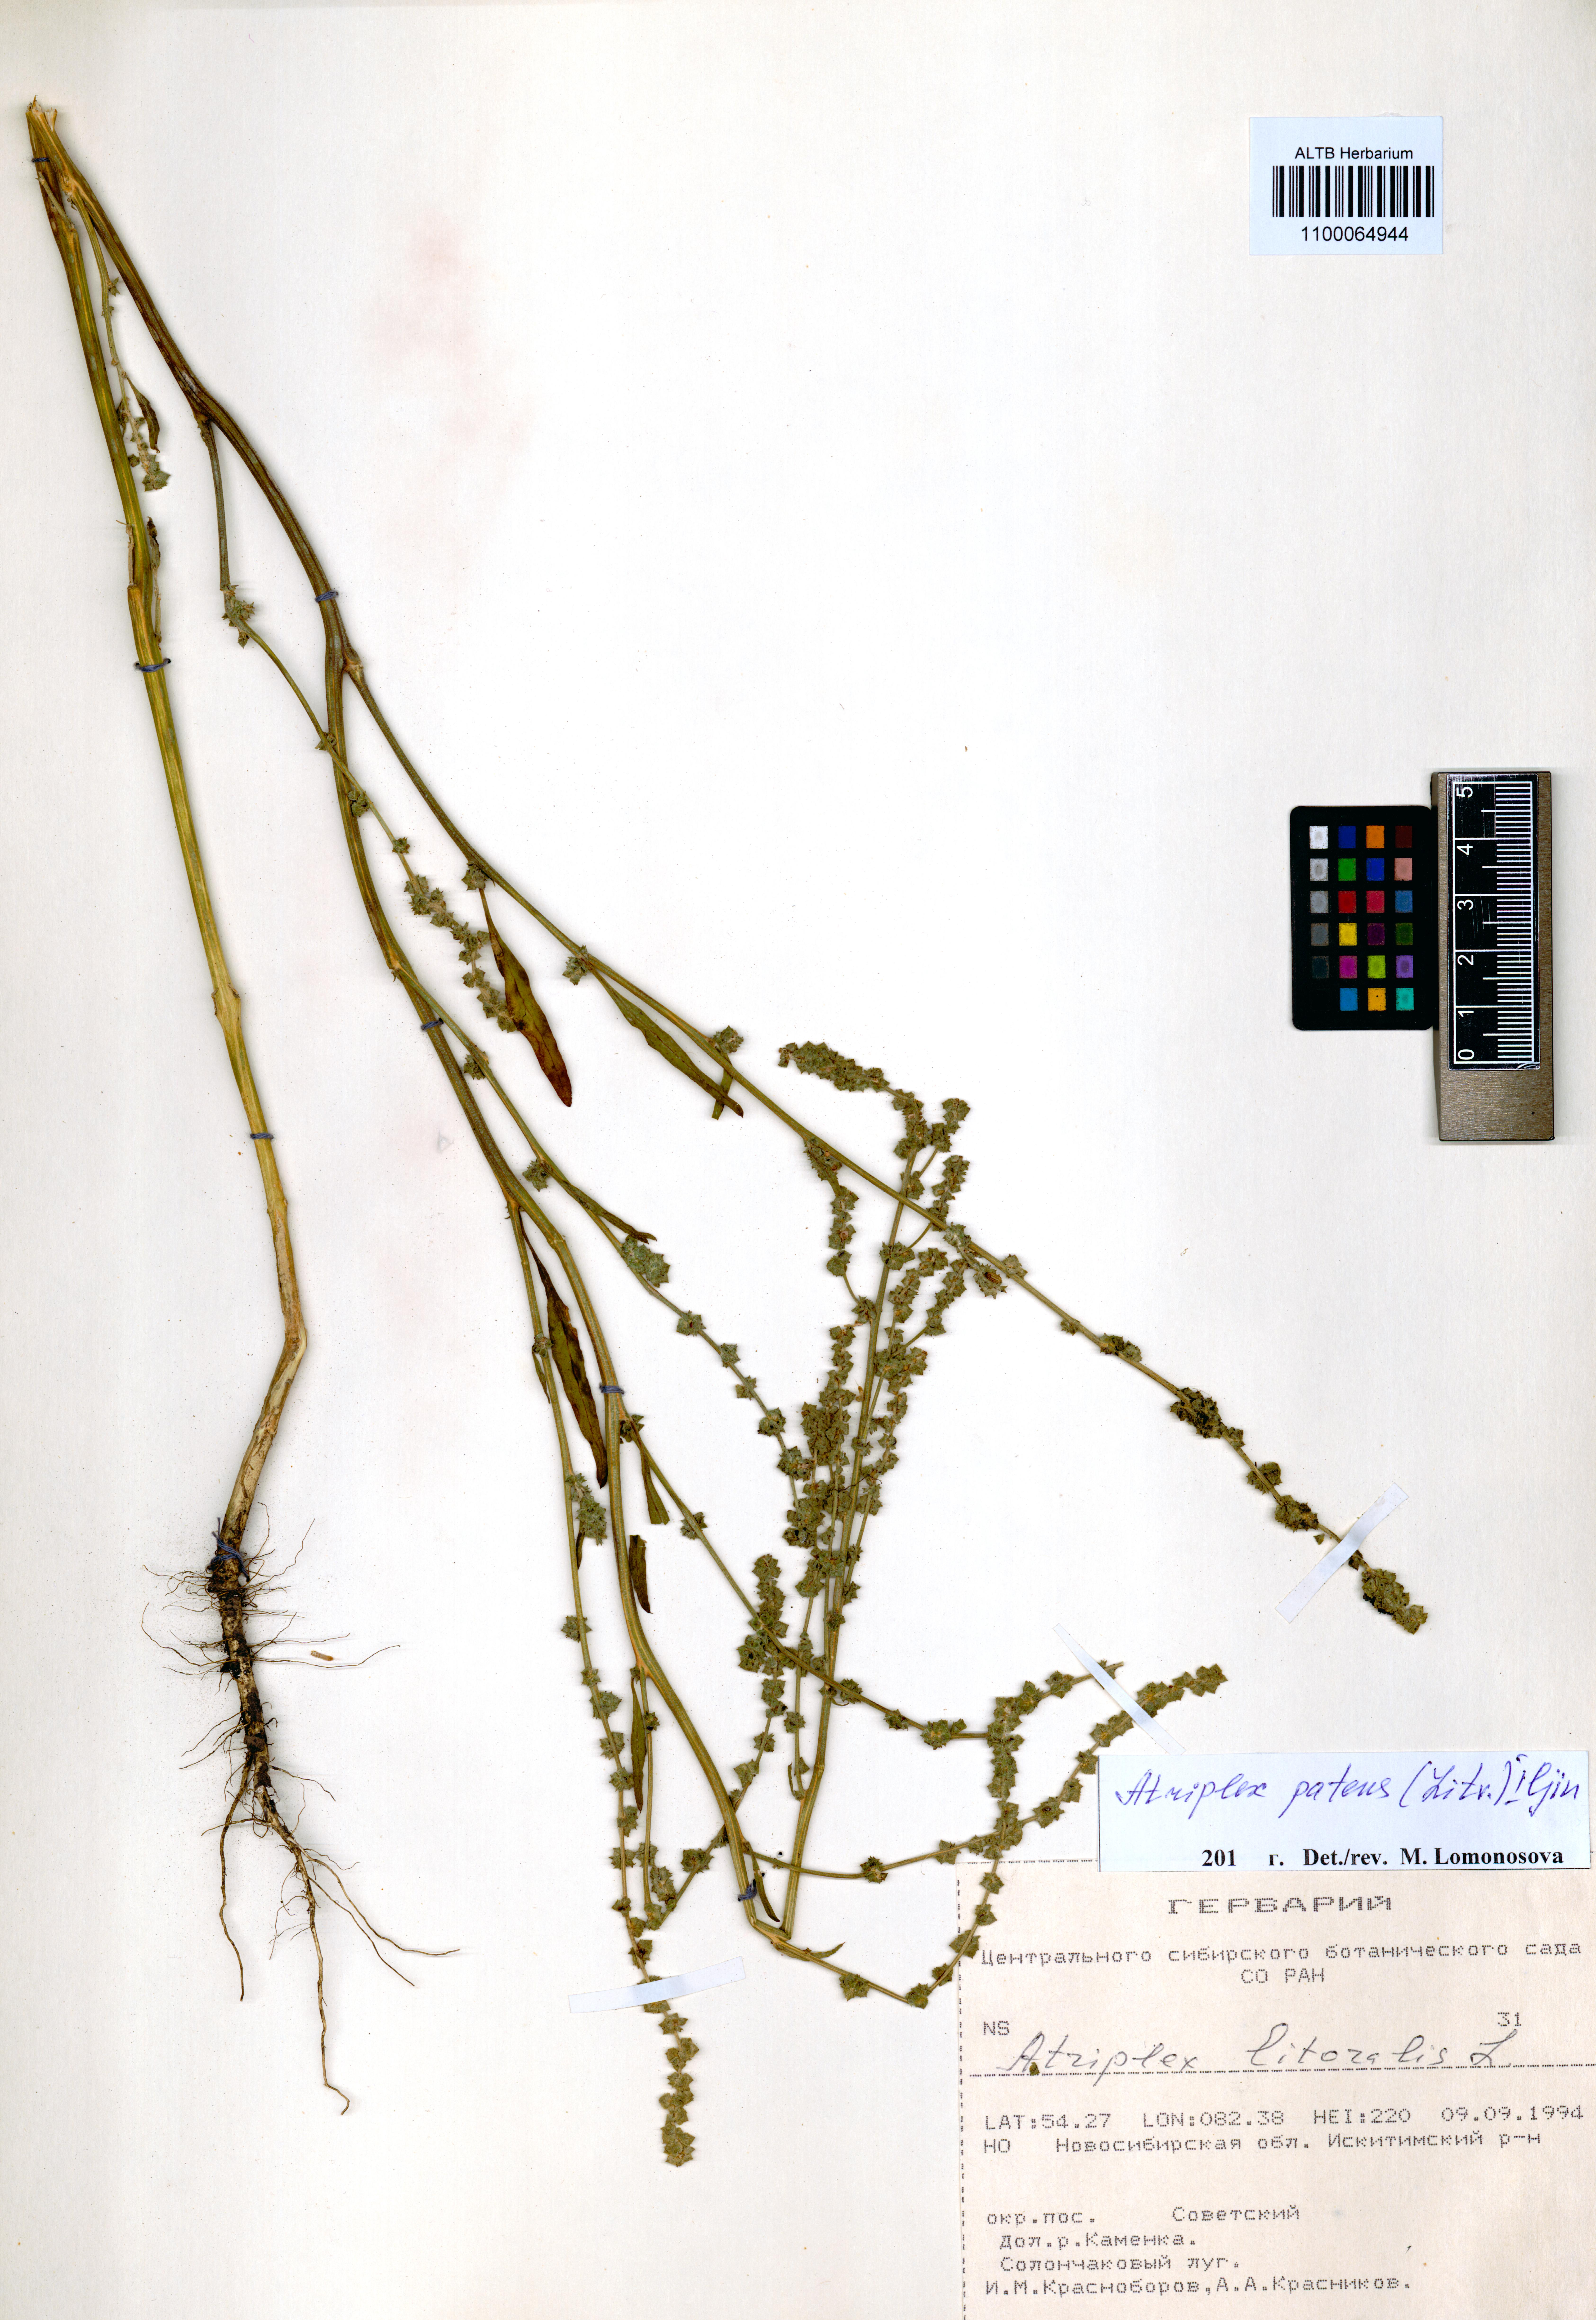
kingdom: Plantae
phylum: Tracheophyta
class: Magnoliopsida
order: Caryophyllales
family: Amaranthaceae
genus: Atriplex
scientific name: Atriplex patens
